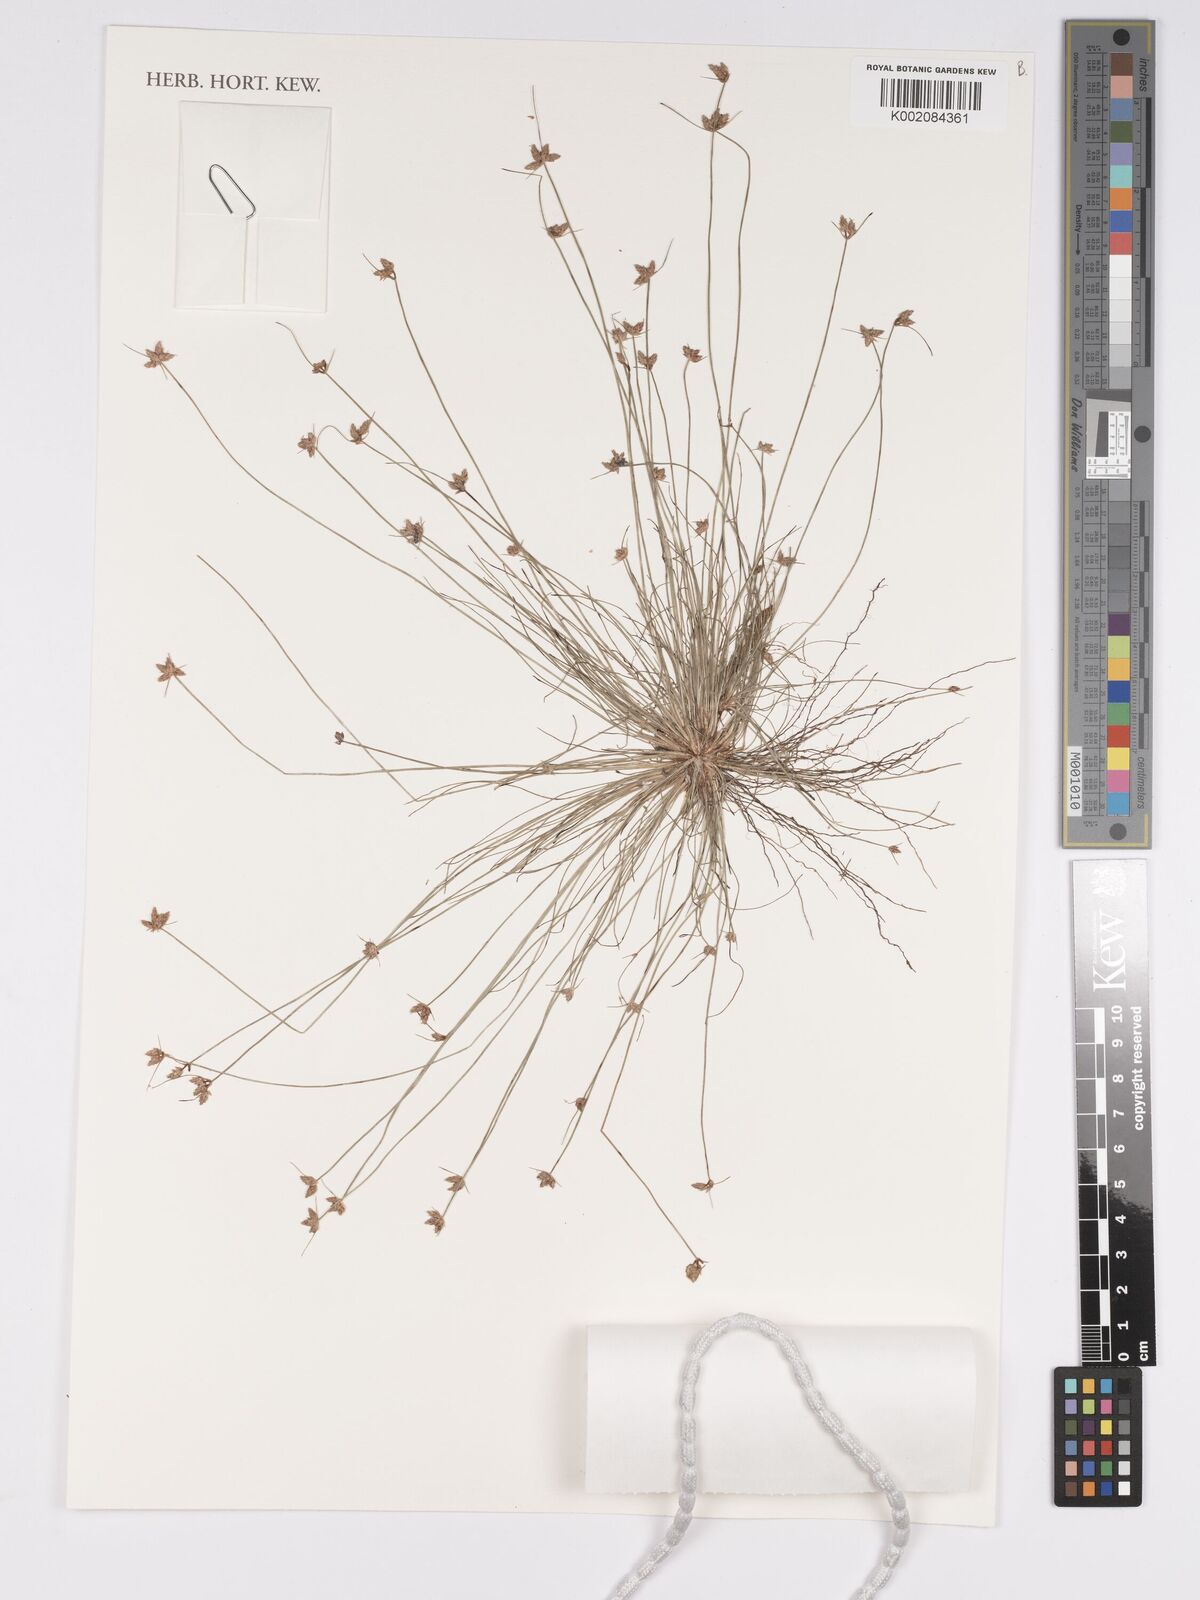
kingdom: Plantae
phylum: Tracheophyta
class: Liliopsida
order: Poales
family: Cyperaceae
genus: Bulbostylis
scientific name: Bulbostylis
